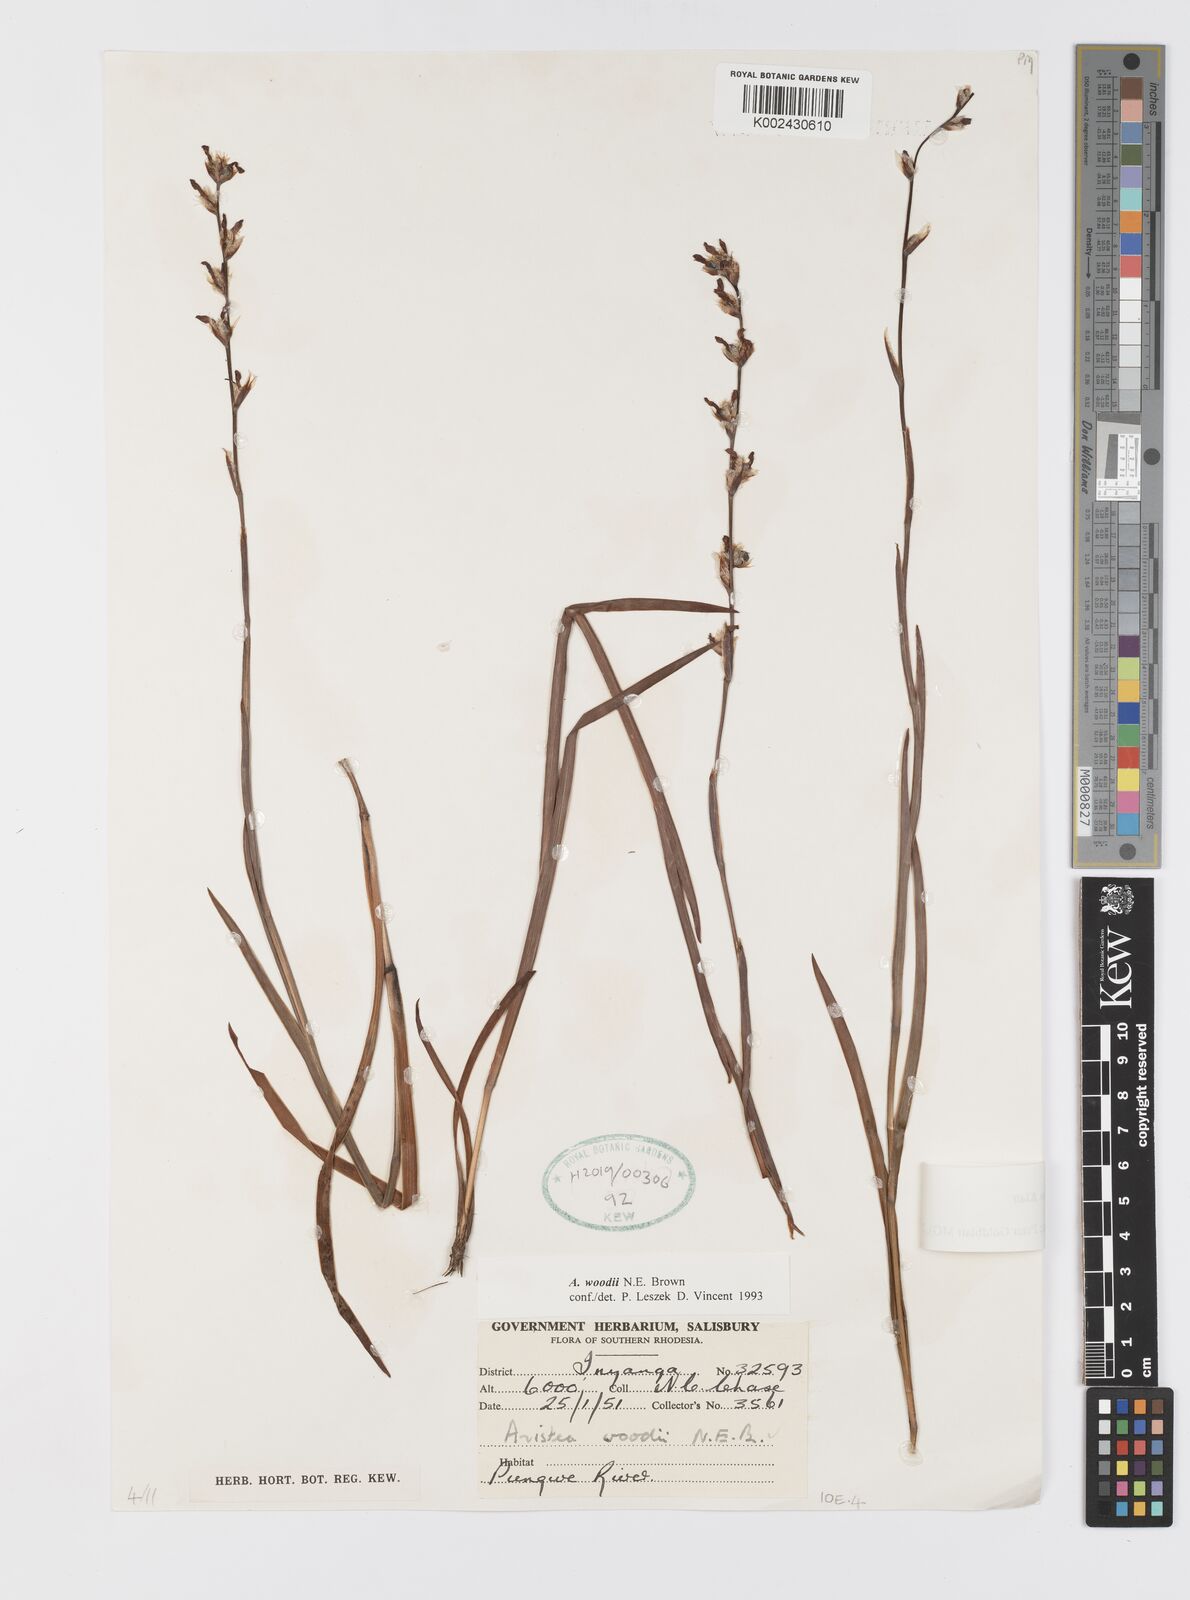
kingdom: Plantae
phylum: Tracheophyta
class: Liliopsida
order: Asparagales
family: Iridaceae
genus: Aristea
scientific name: Aristea torulosa
